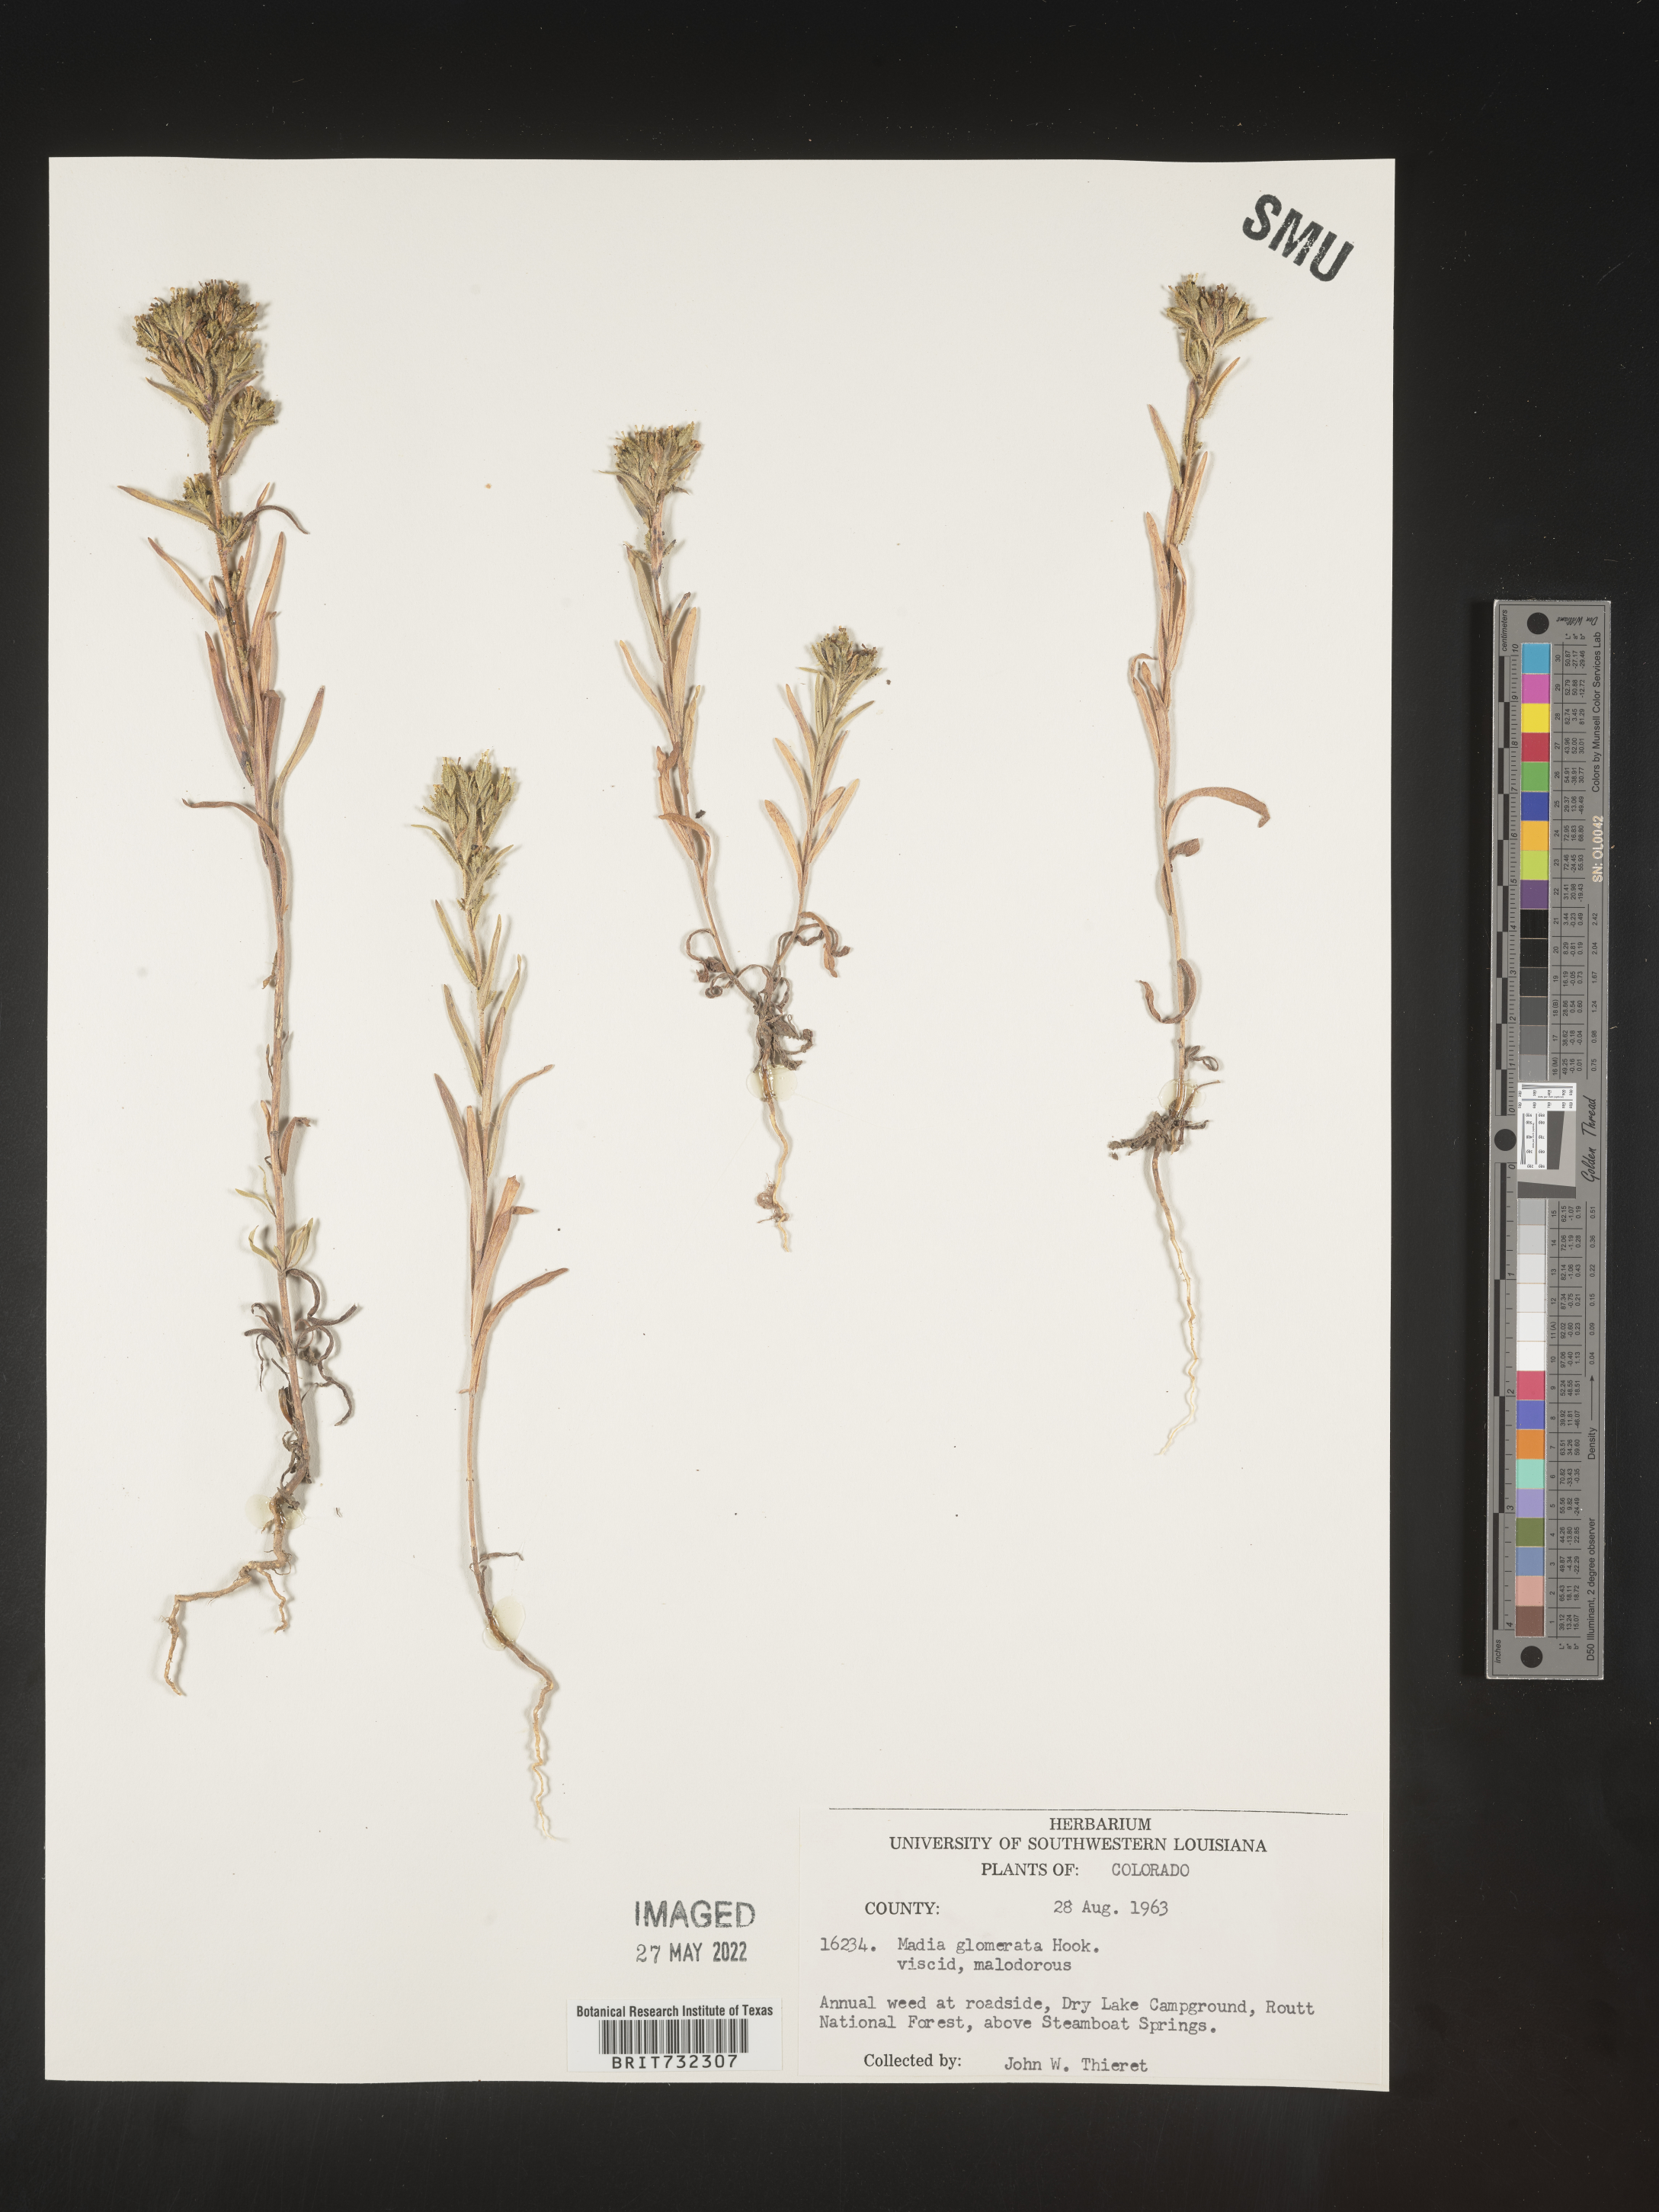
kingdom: Plantae
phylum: Tracheophyta
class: Magnoliopsida
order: Asterales
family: Asteraceae
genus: Madia
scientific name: Madia glomerata
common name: Mountain tarweed
